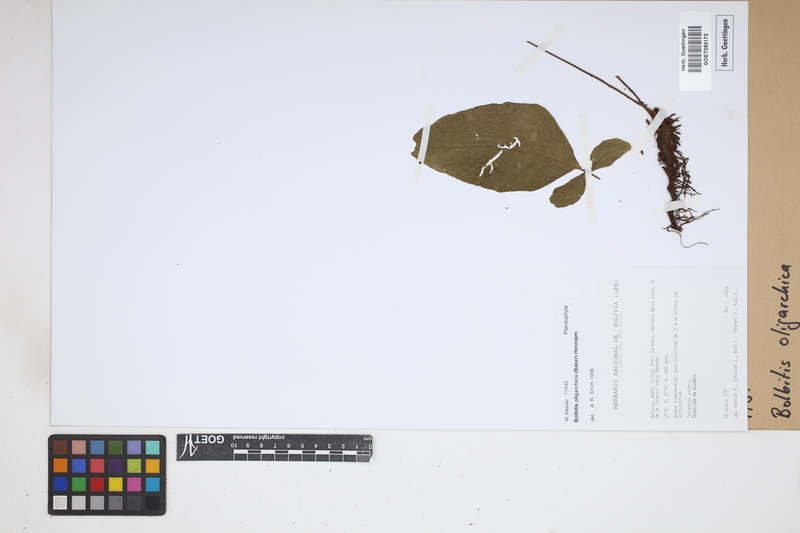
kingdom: Plantae
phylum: Tracheophyta
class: Polypodiopsida
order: Polypodiales
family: Dryopteridaceae
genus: Mickelia
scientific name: Mickelia oligarchica
